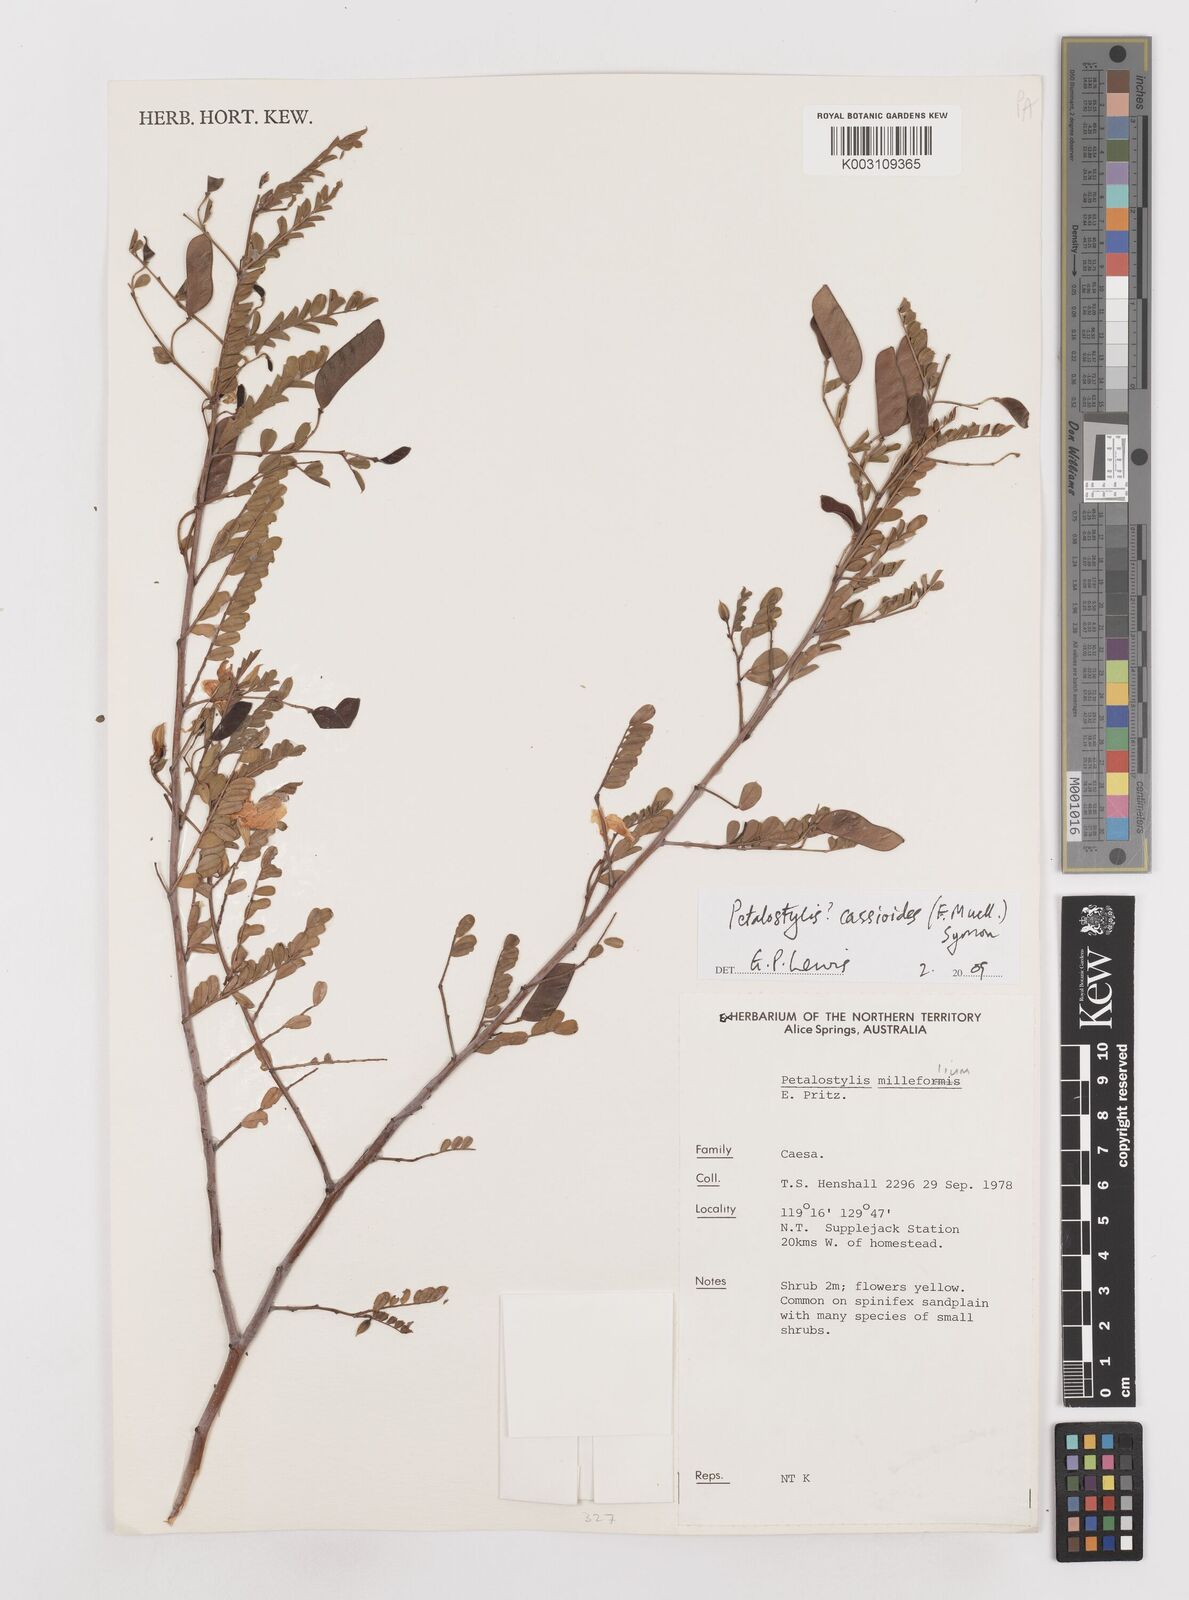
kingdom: Plantae
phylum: Tracheophyta
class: Magnoliopsida
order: Fabales
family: Fabaceae
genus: Petalostylis
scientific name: Petalostylis cassioides
